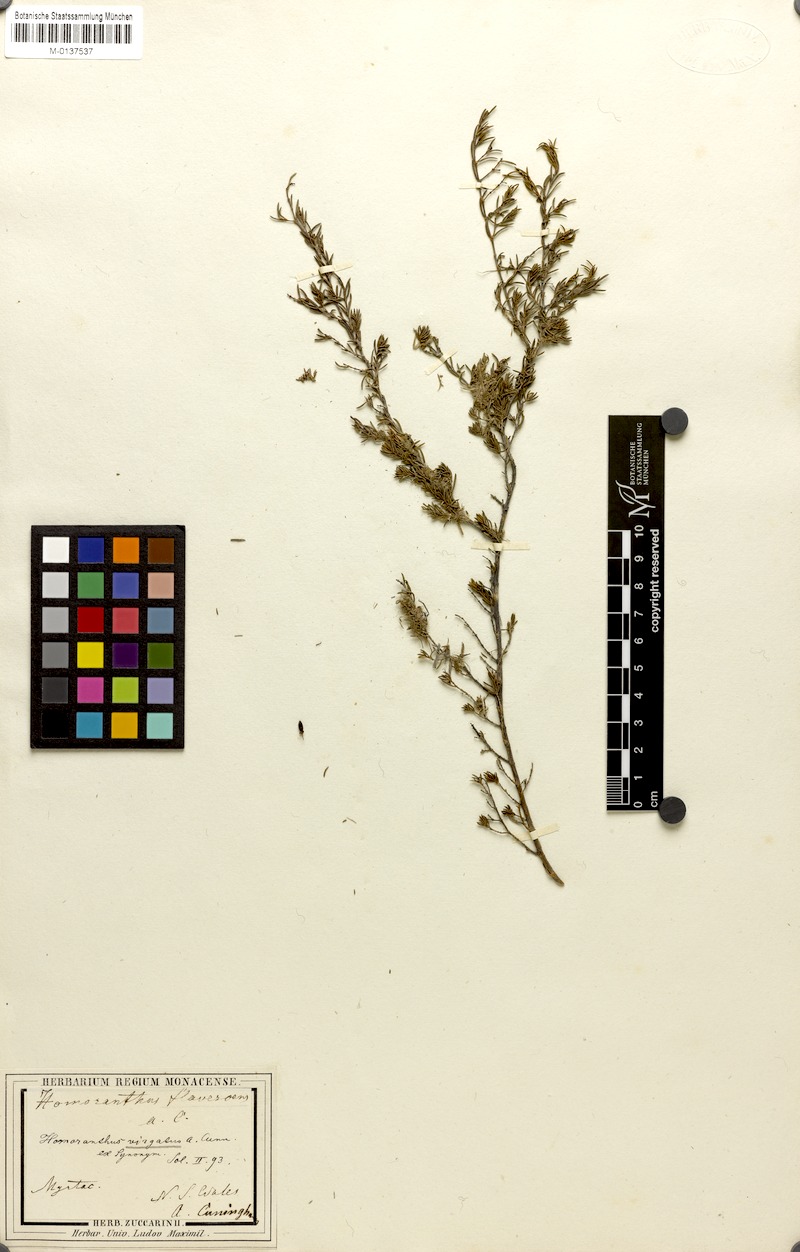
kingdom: Plantae
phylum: Tracheophyta
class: Magnoliopsida
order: Myrtales
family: Myrtaceae
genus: Homoranthus
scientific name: Homoranthus flavescens
